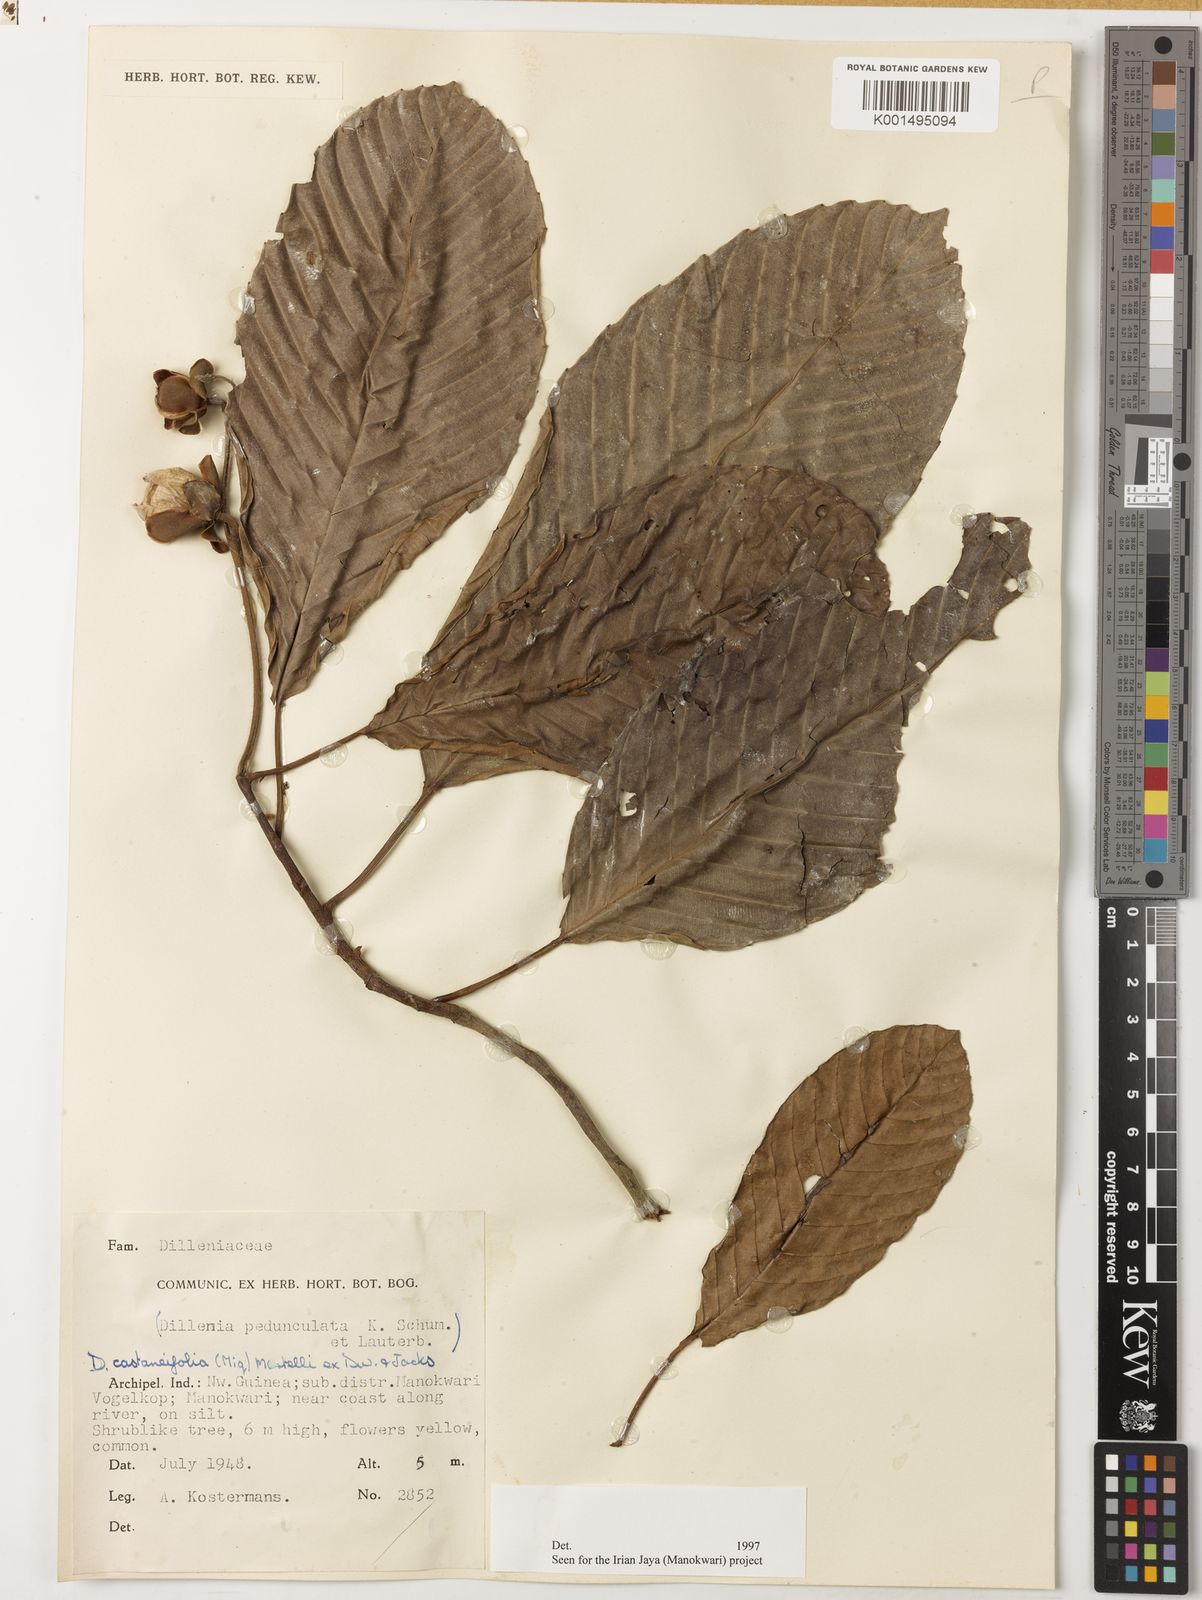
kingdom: Plantae
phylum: Tracheophyta
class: Magnoliopsida
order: Dilleniales
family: Dilleniaceae
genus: Dillenia
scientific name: Dillenia castaneifolia
